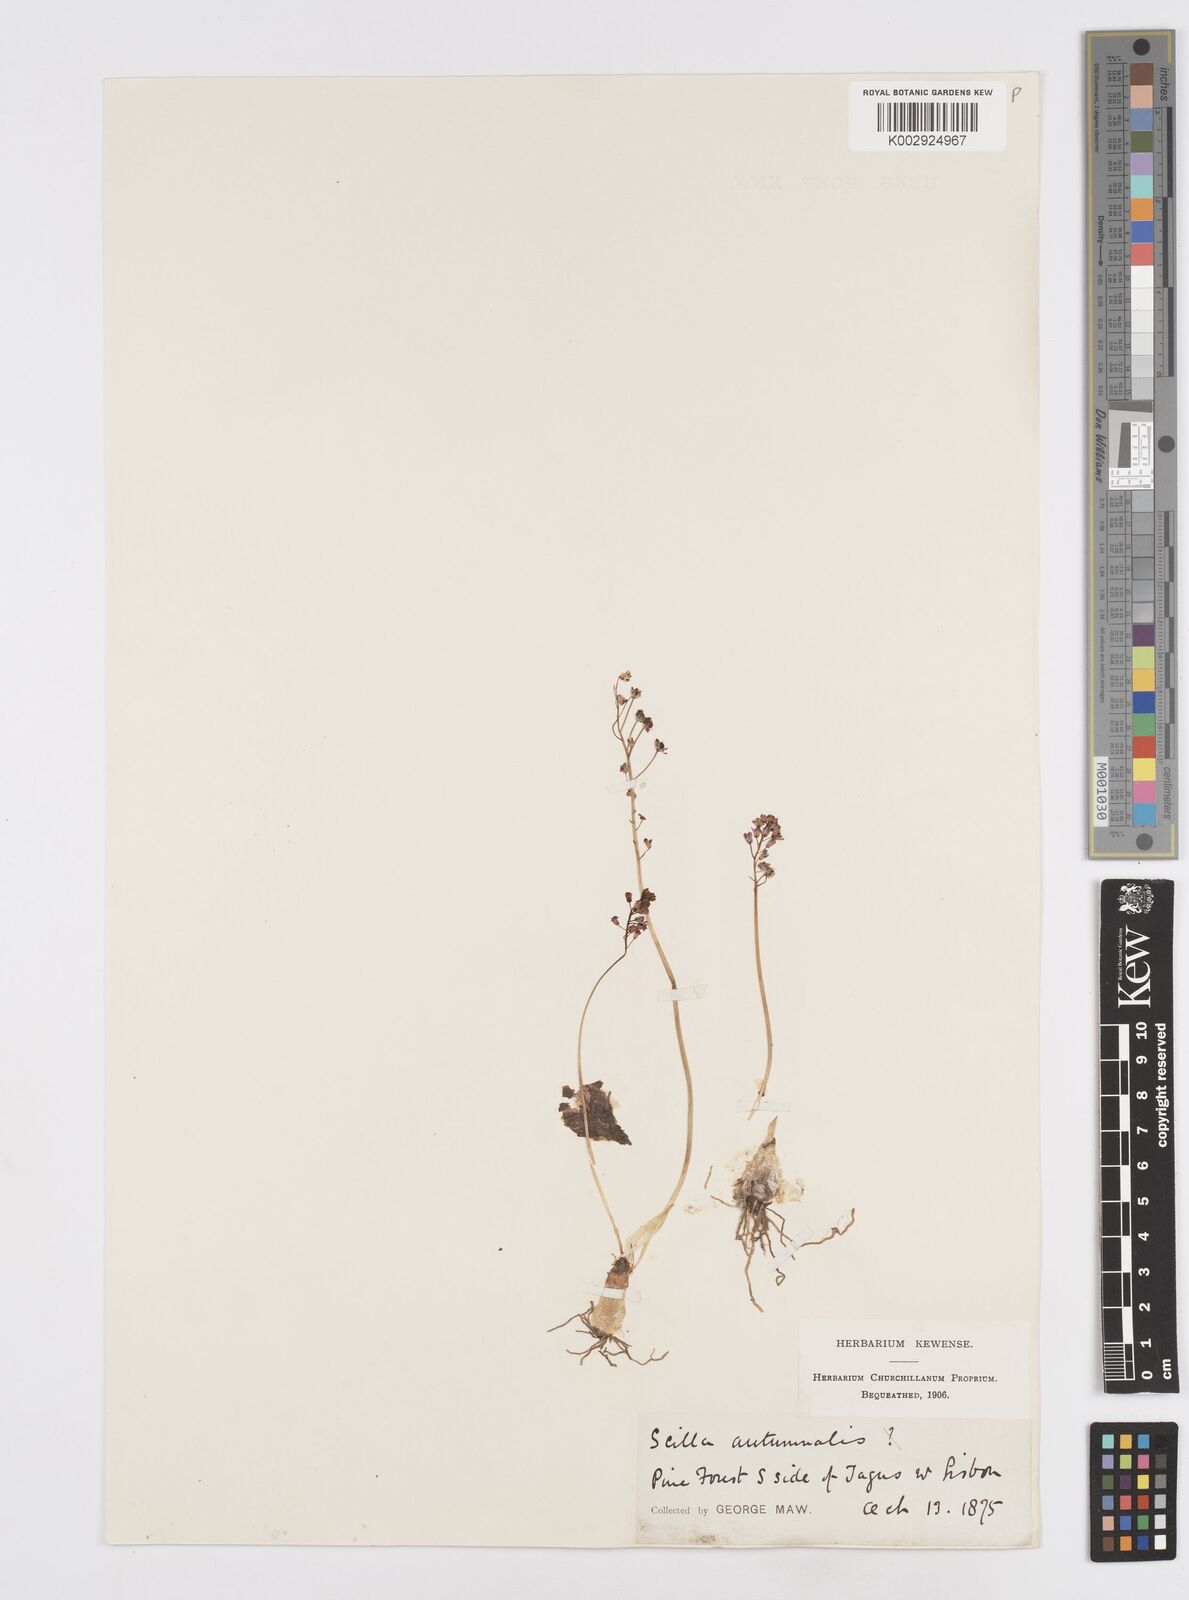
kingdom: Plantae
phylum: Tracheophyta
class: Liliopsida
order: Asparagales
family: Asparagaceae
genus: Prospero
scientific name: Prospero autumnale
